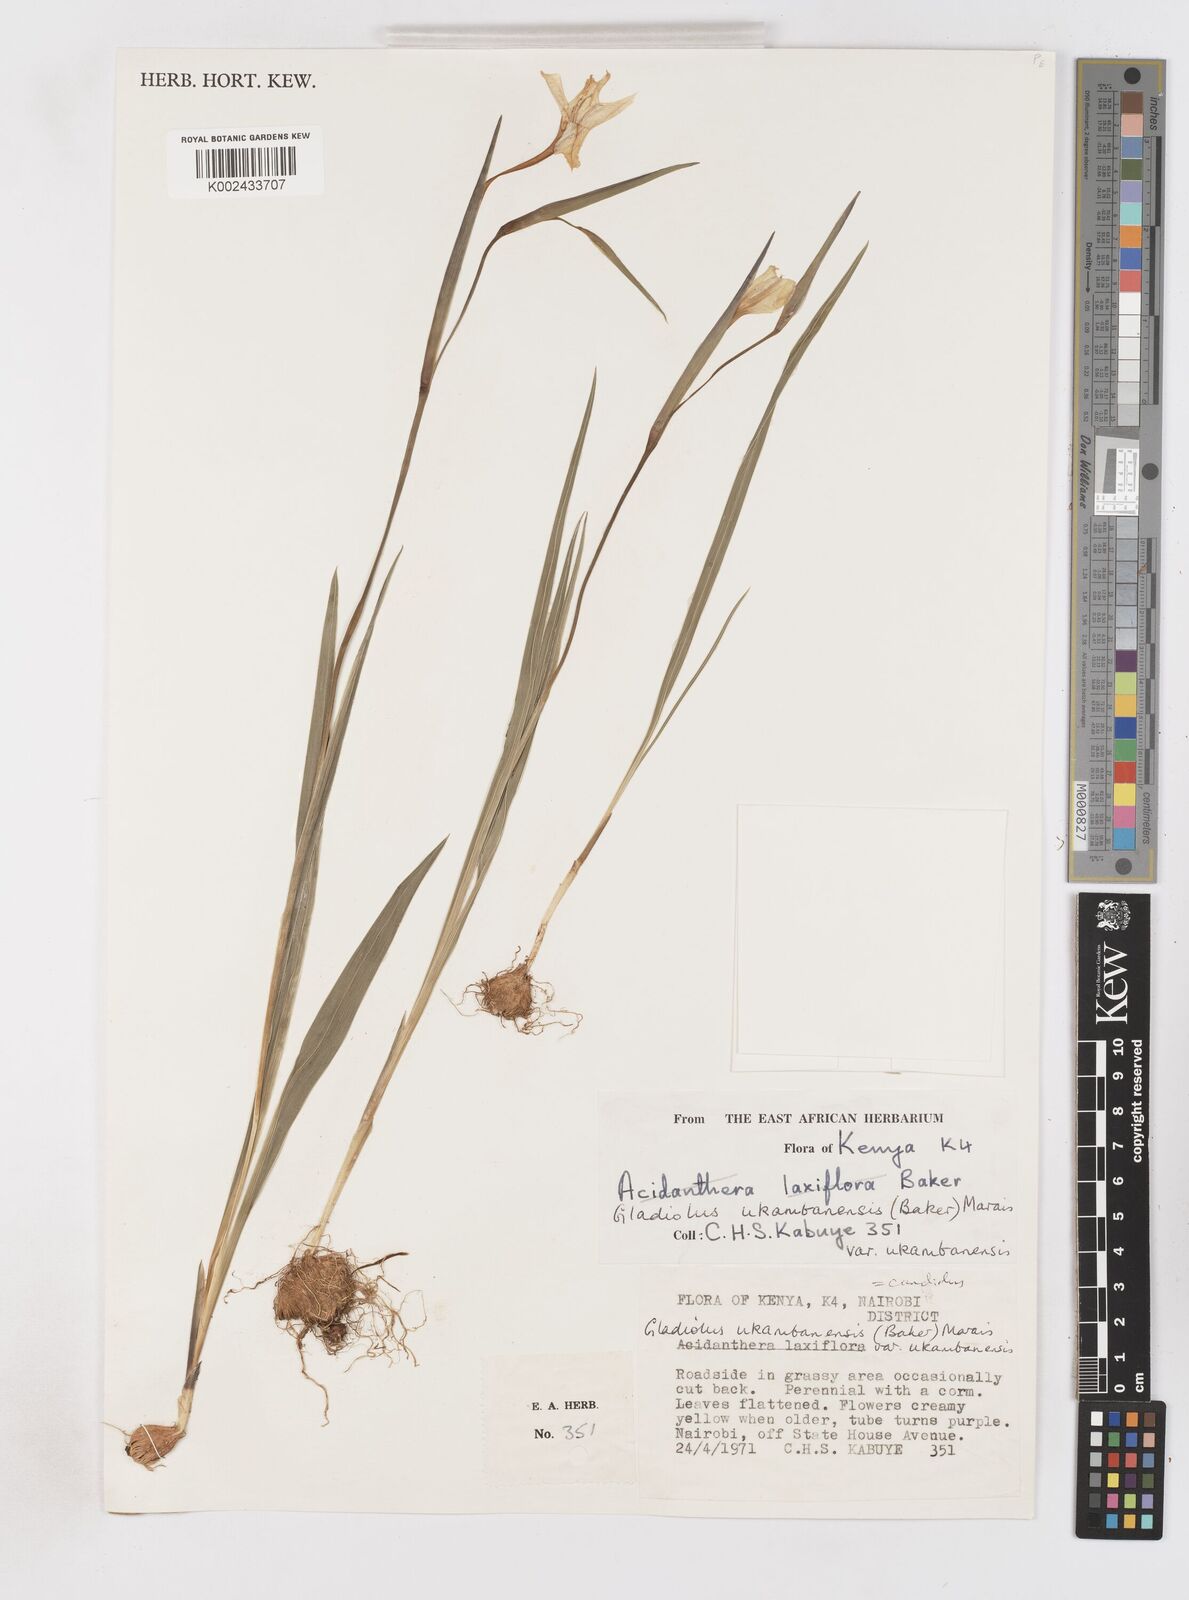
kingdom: Plantae
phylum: Tracheophyta
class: Liliopsida
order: Asparagales
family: Iridaceae
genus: Gladiolus
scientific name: Gladiolus candidus
